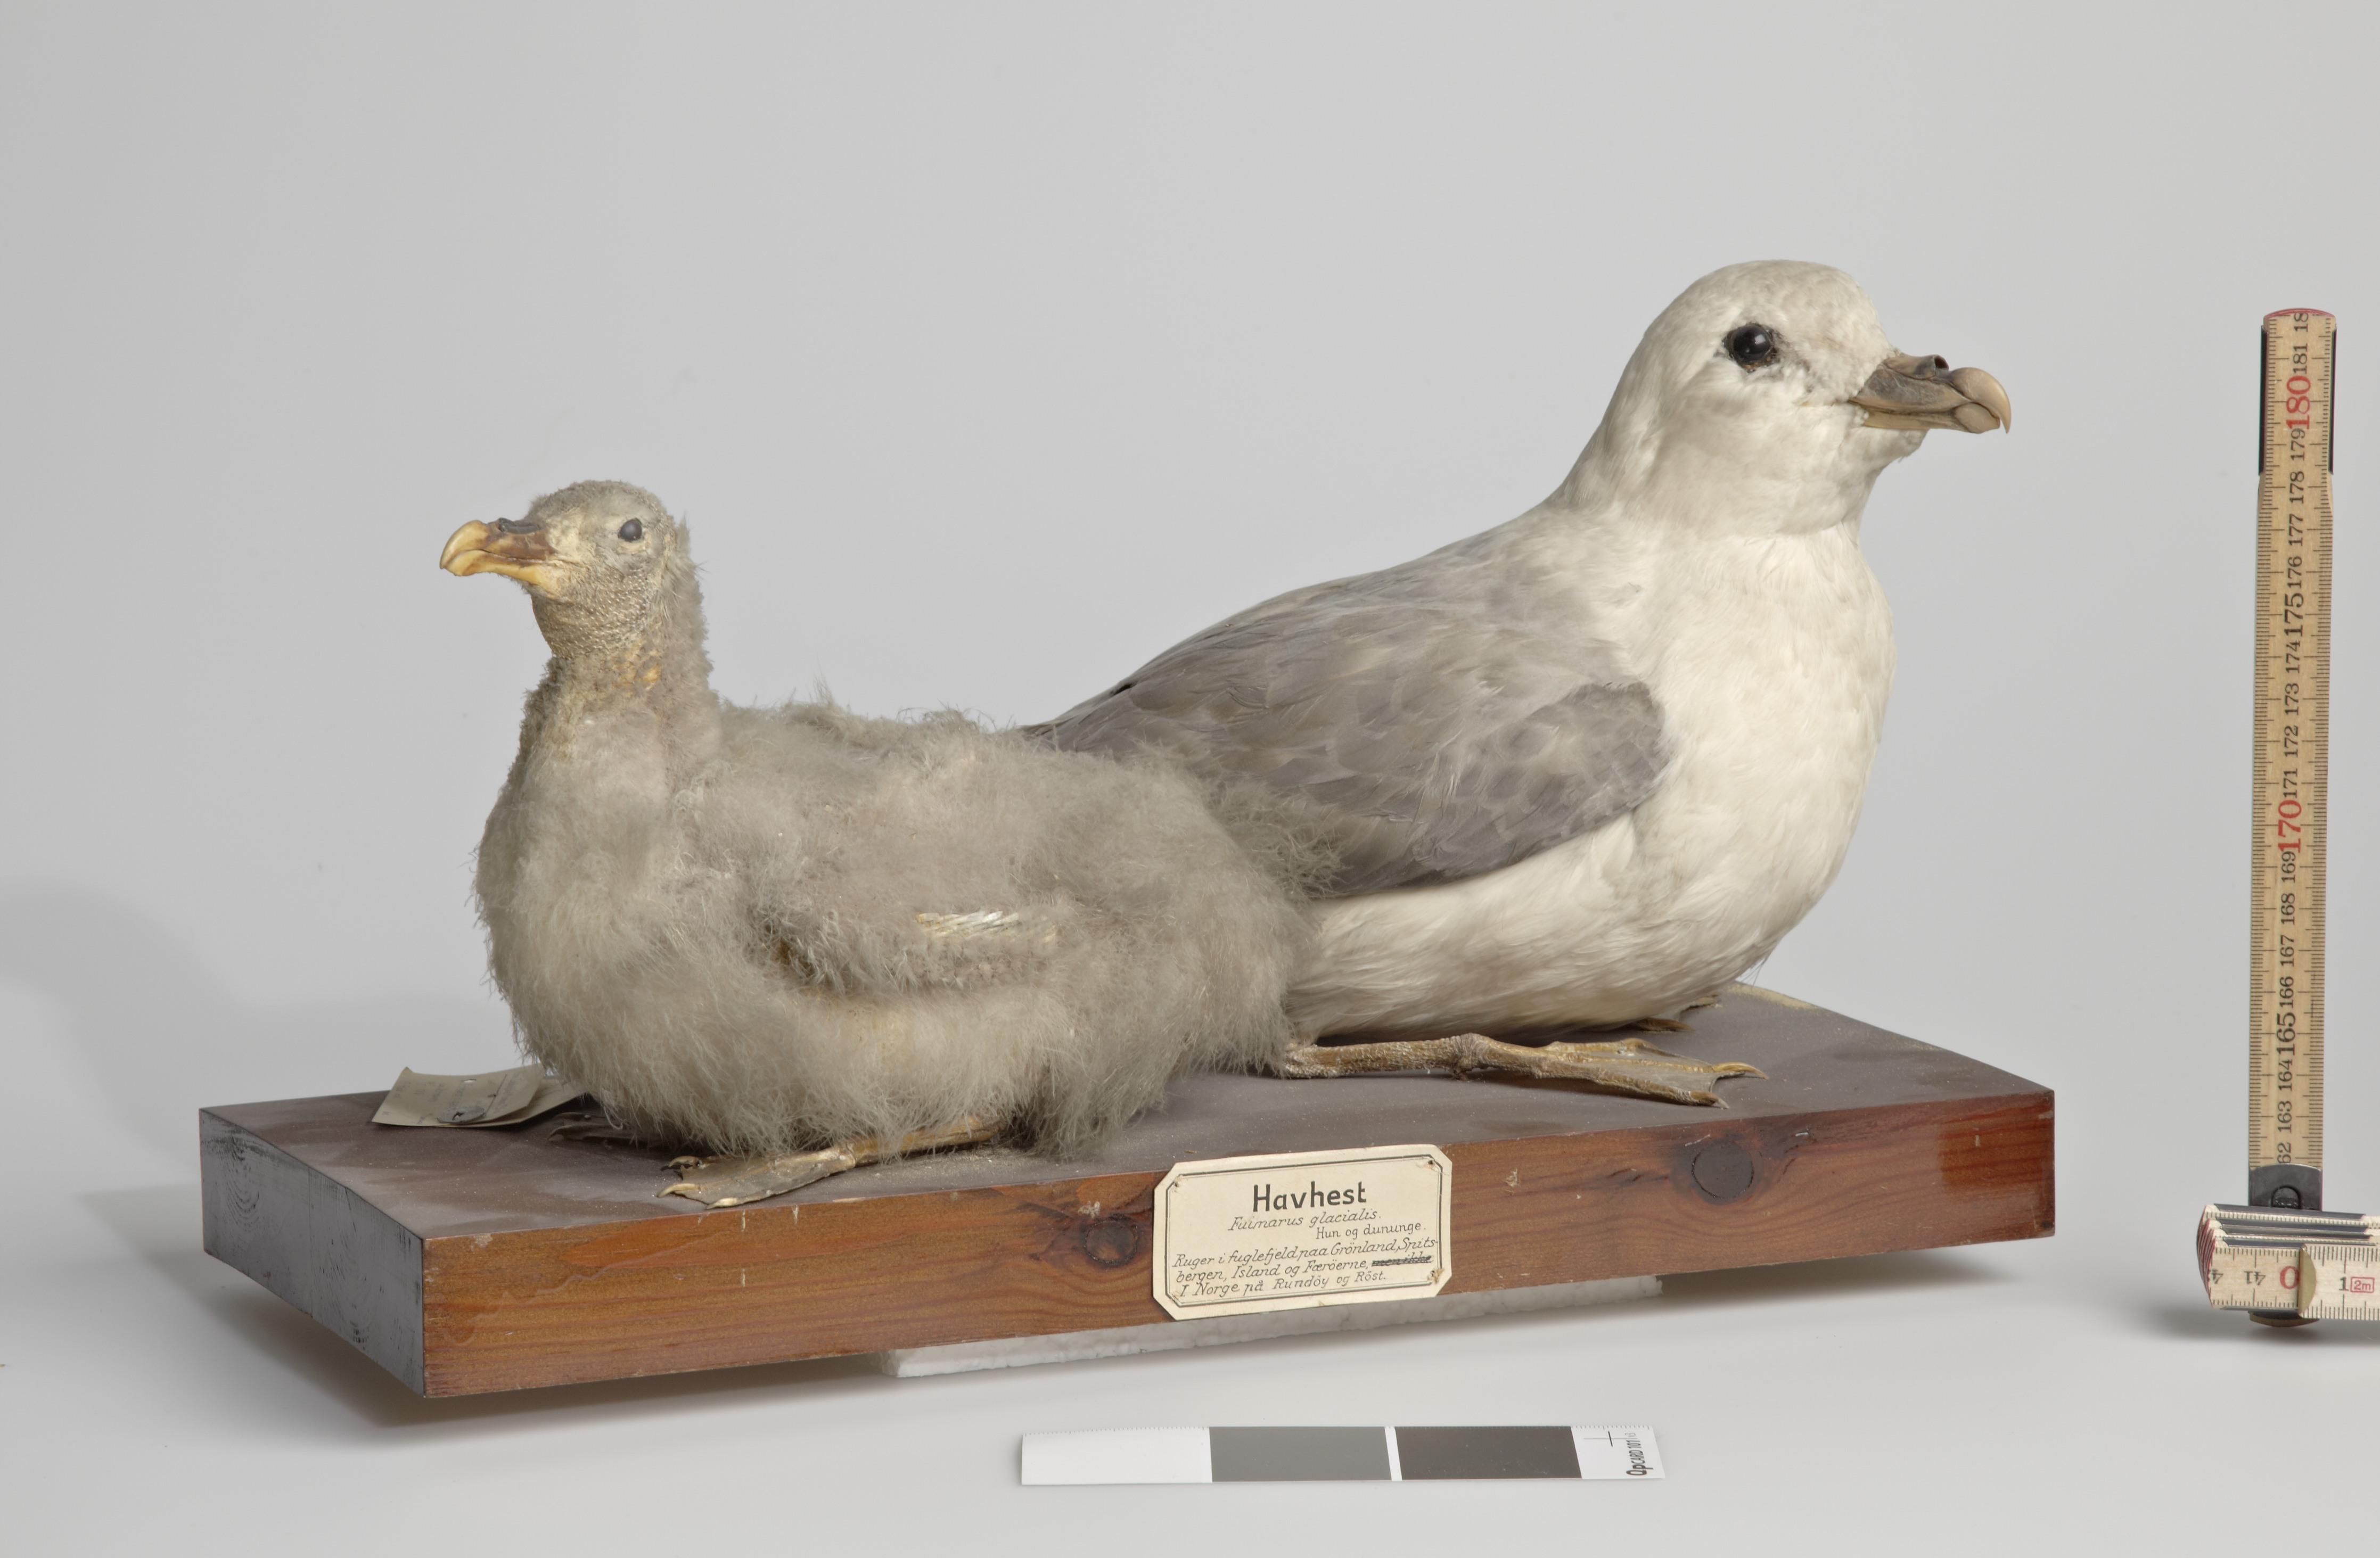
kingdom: Animalia
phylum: Chordata
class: Aves
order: Procellariiformes
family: Procellariidae
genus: Fulmarus
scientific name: Fulmarus glacialis
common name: Northern fulmar
